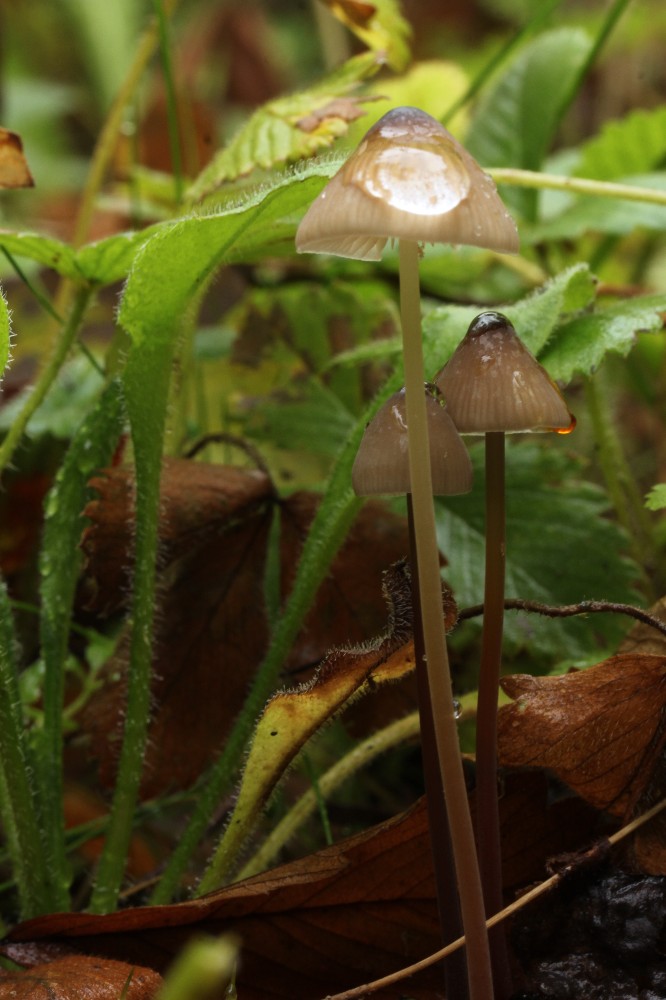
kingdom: Fungi
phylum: Basidiomycota
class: Agaricomycetes
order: Agaricales
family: Mycenaceae
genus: Mycena
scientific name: Mycena crocata
